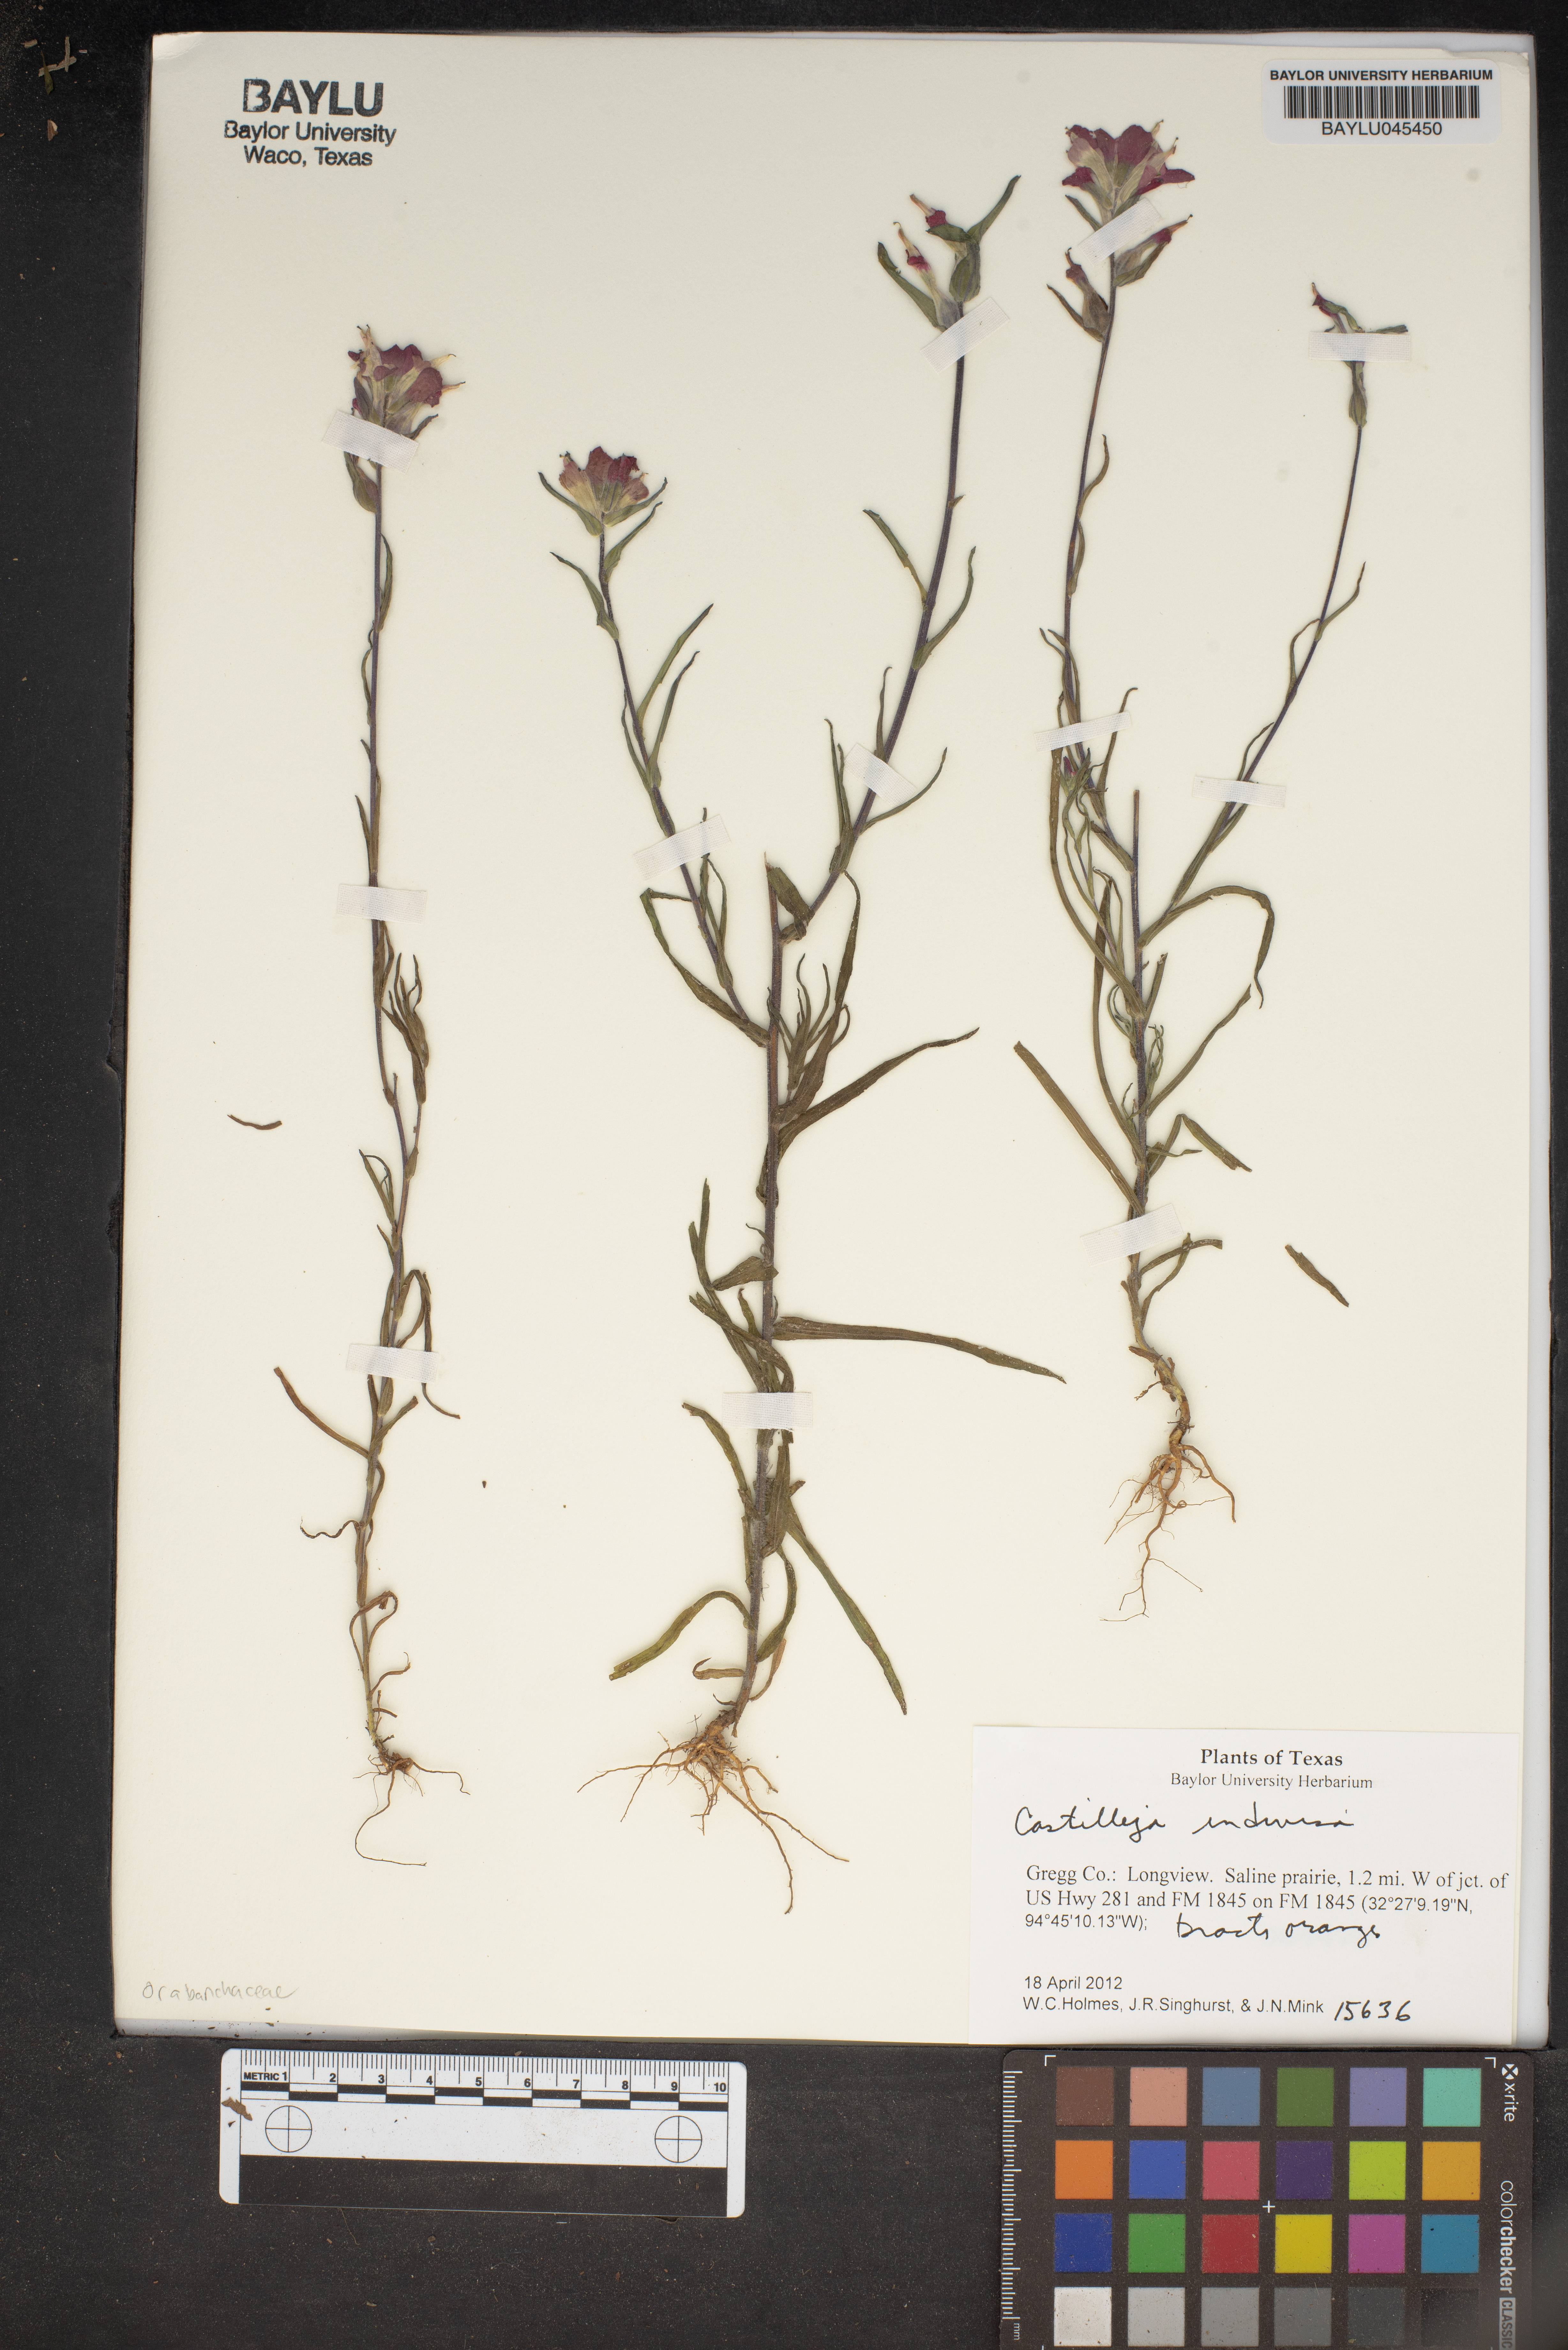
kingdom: Plantae
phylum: Tracheophyta
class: Magnoliopsida
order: Lamiales
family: Orobanchaceae
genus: Castilleja
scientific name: Castilleja indivisa
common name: Texas paintbrush
